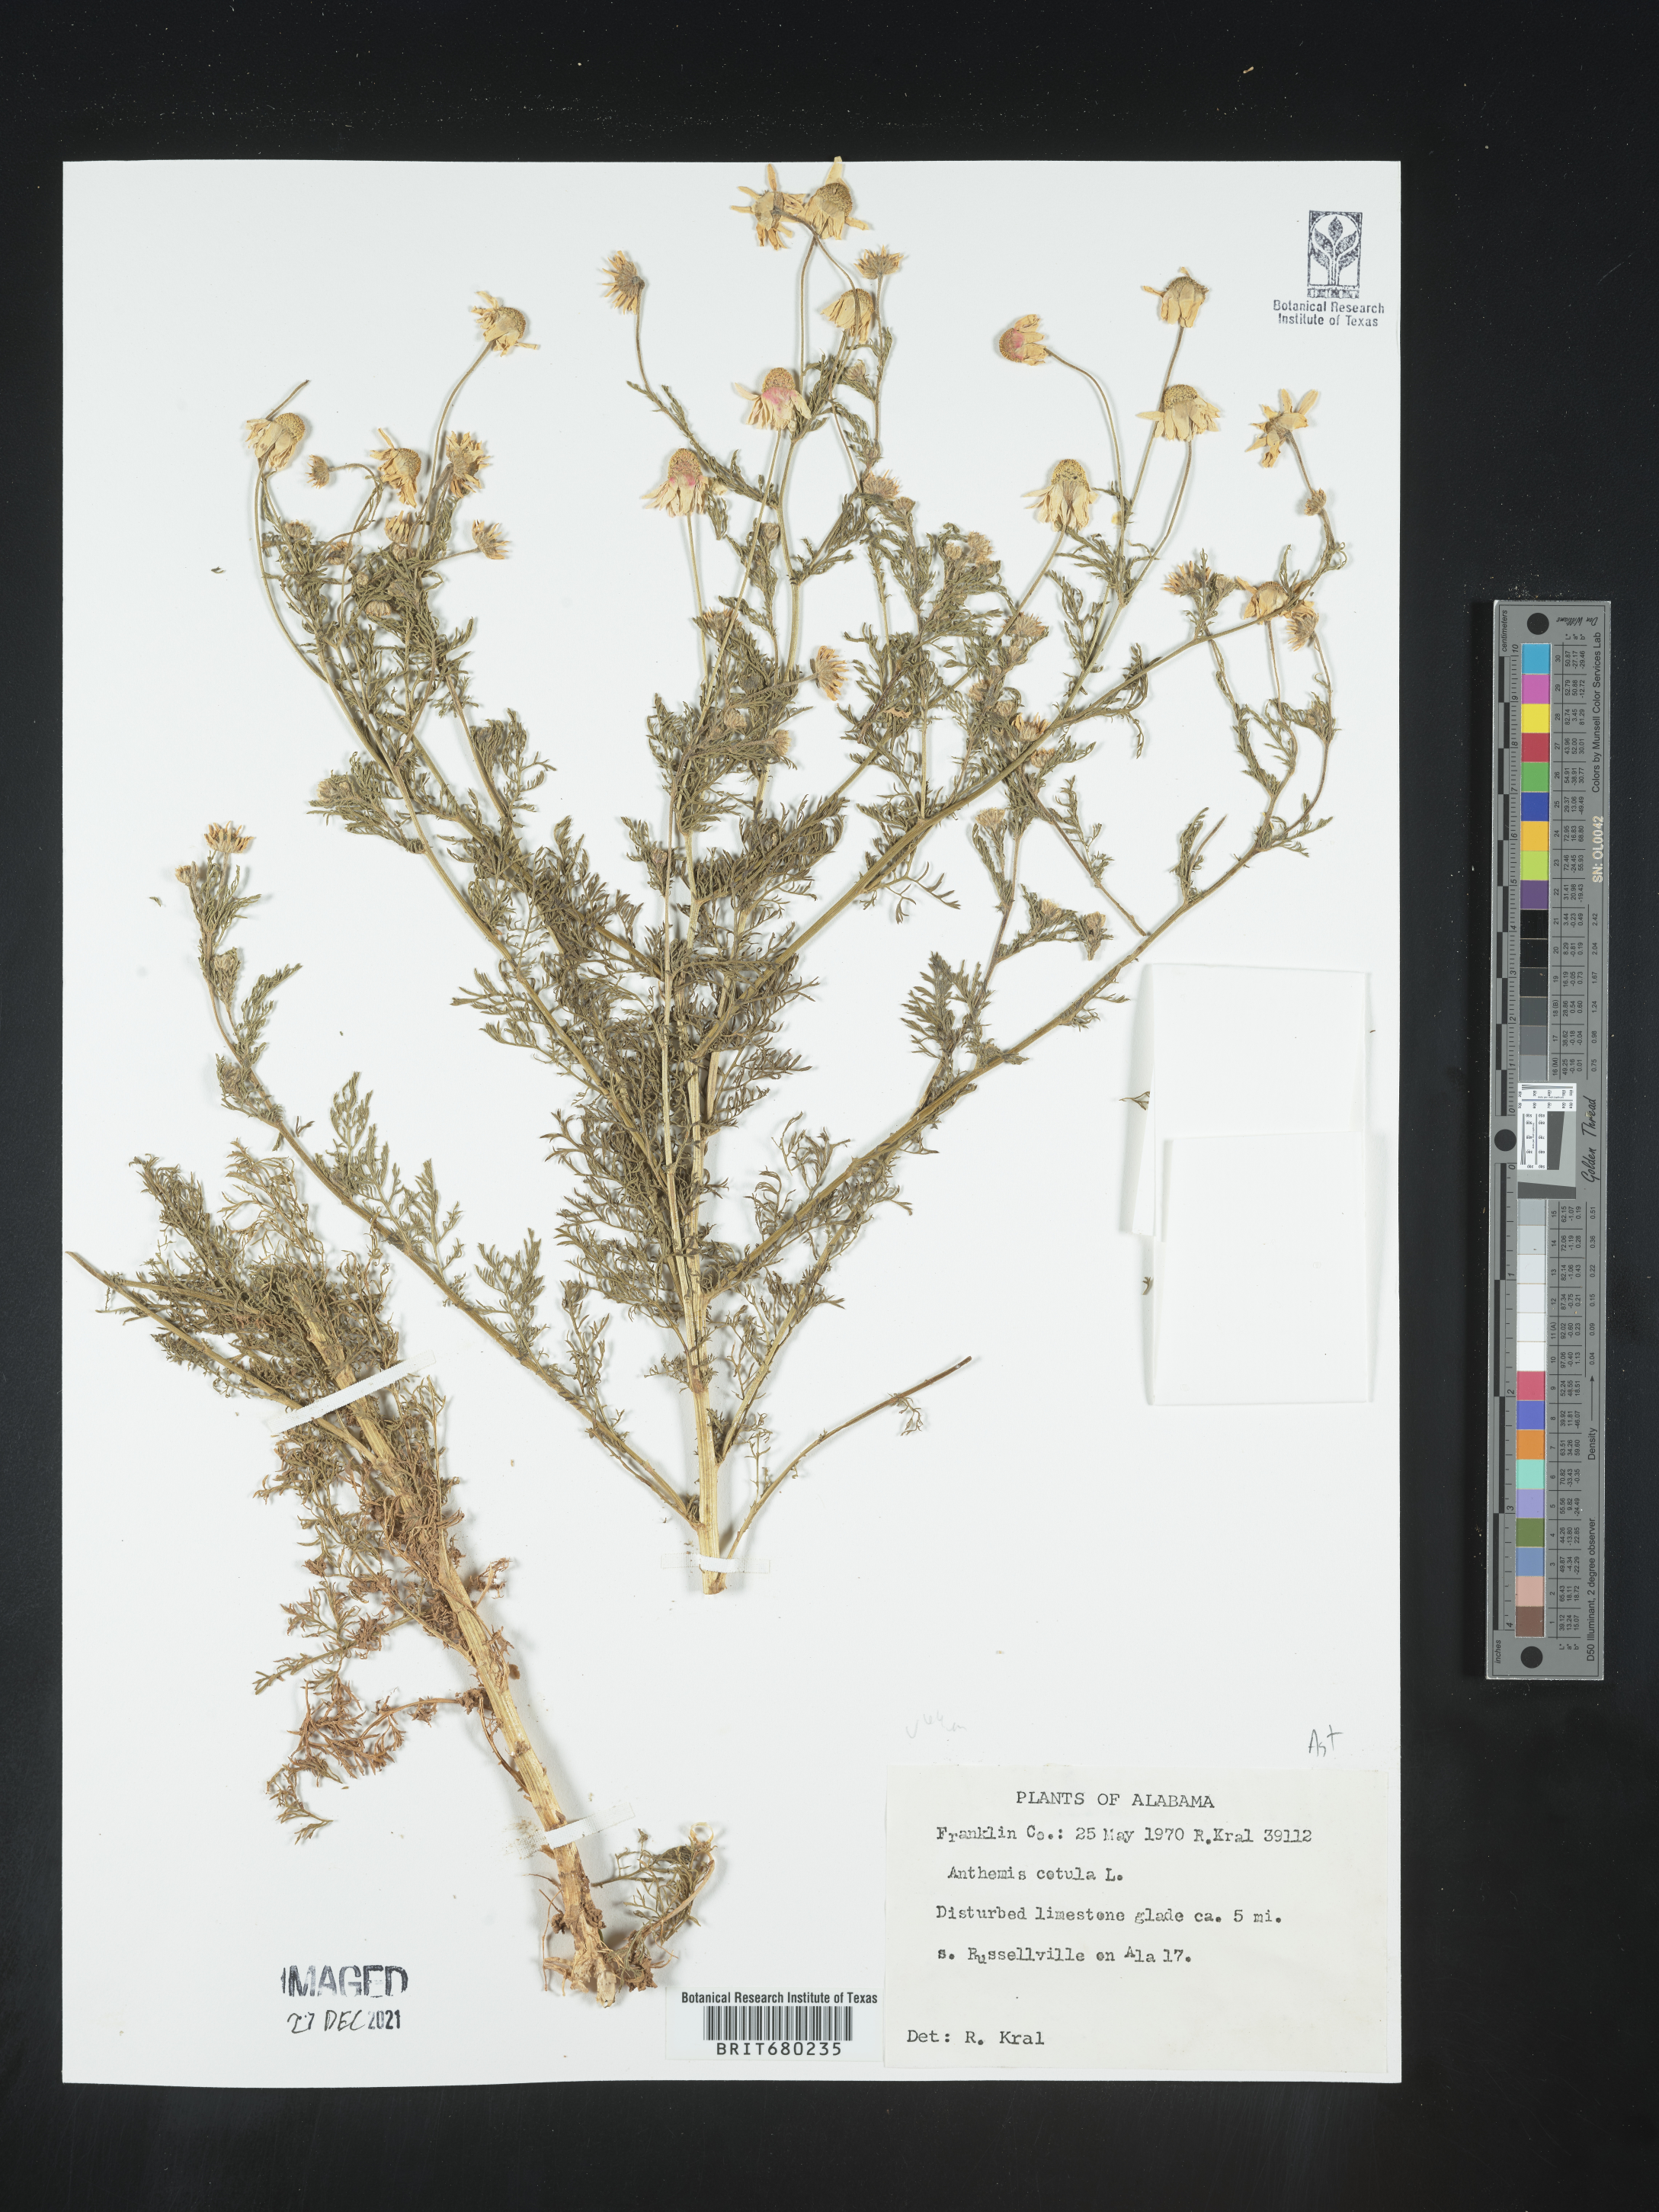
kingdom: Plantae
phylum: Tracheophyta
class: Magnoliopsida
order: Asterales
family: Asteraceae
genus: Anthemis
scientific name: Anthemis cotula
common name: Stinking chamomile
